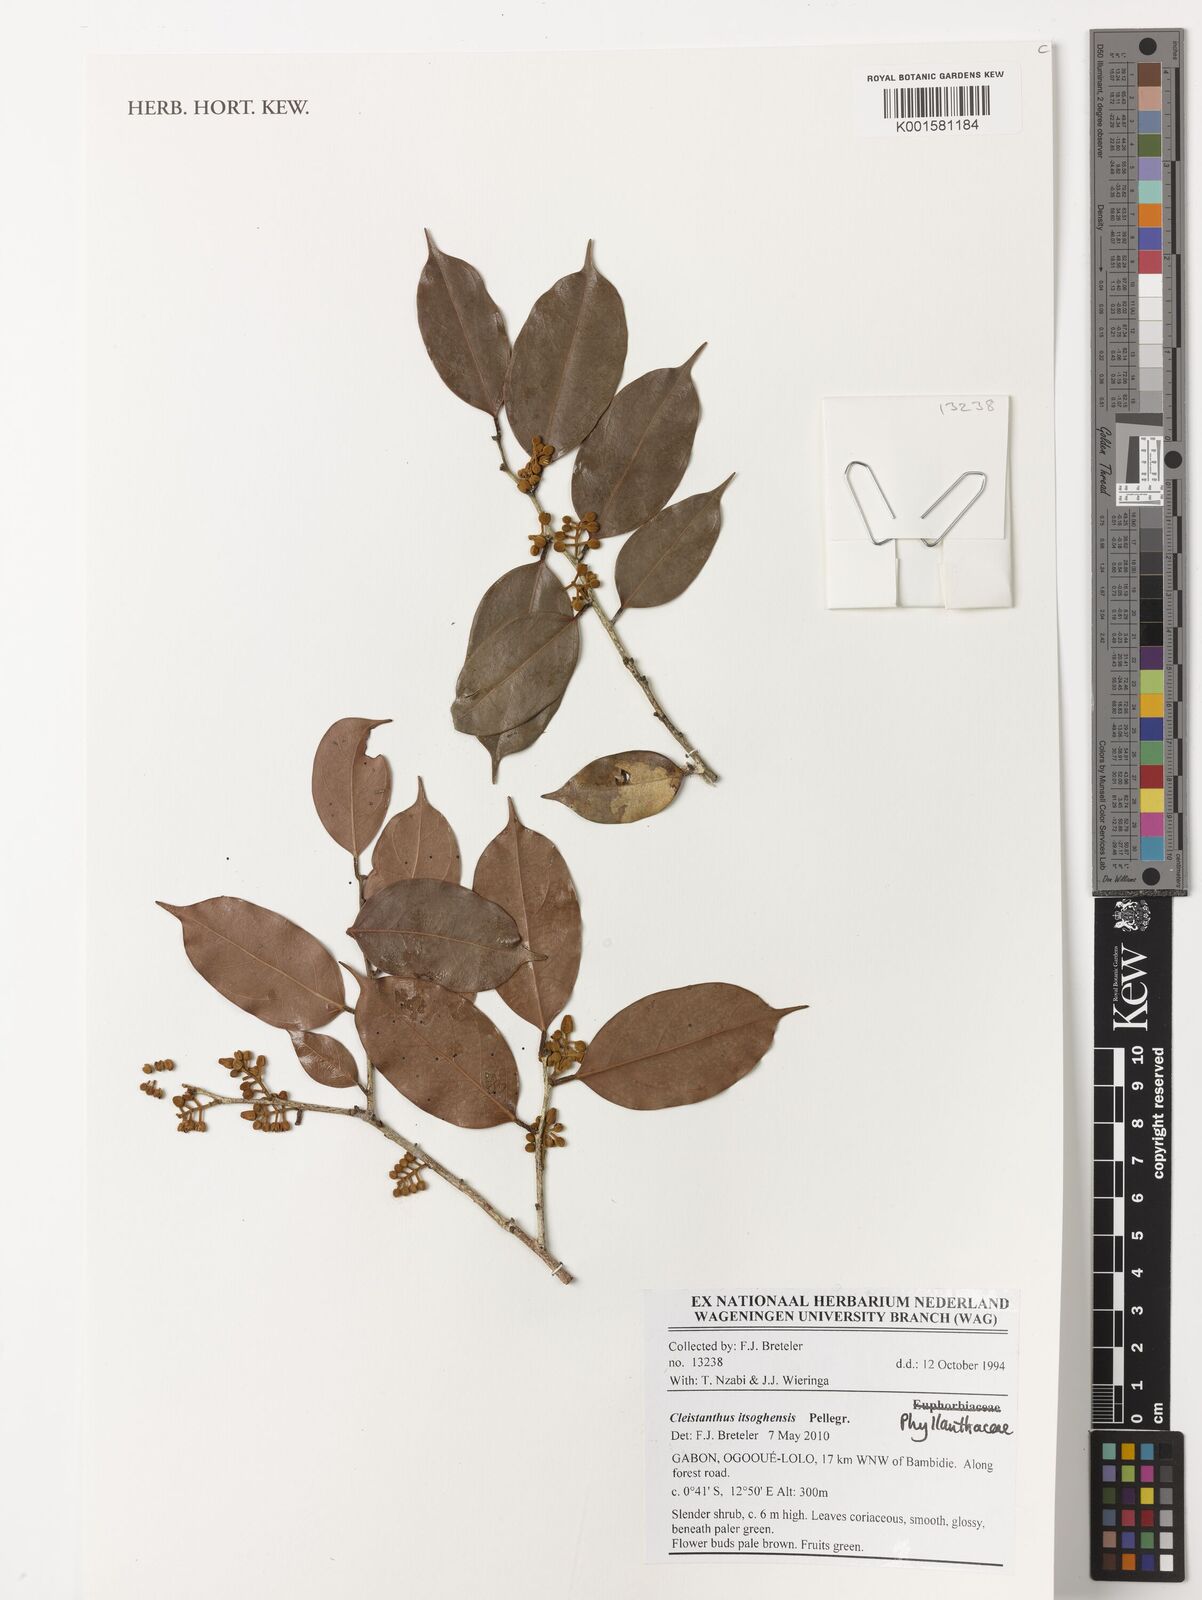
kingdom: Plantae
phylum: Tracheophyta
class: Magnoliopsida
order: Malpighiales
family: Phyllanthaceae
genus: Cleistanthus
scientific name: Cleistanthus itsoghensis
